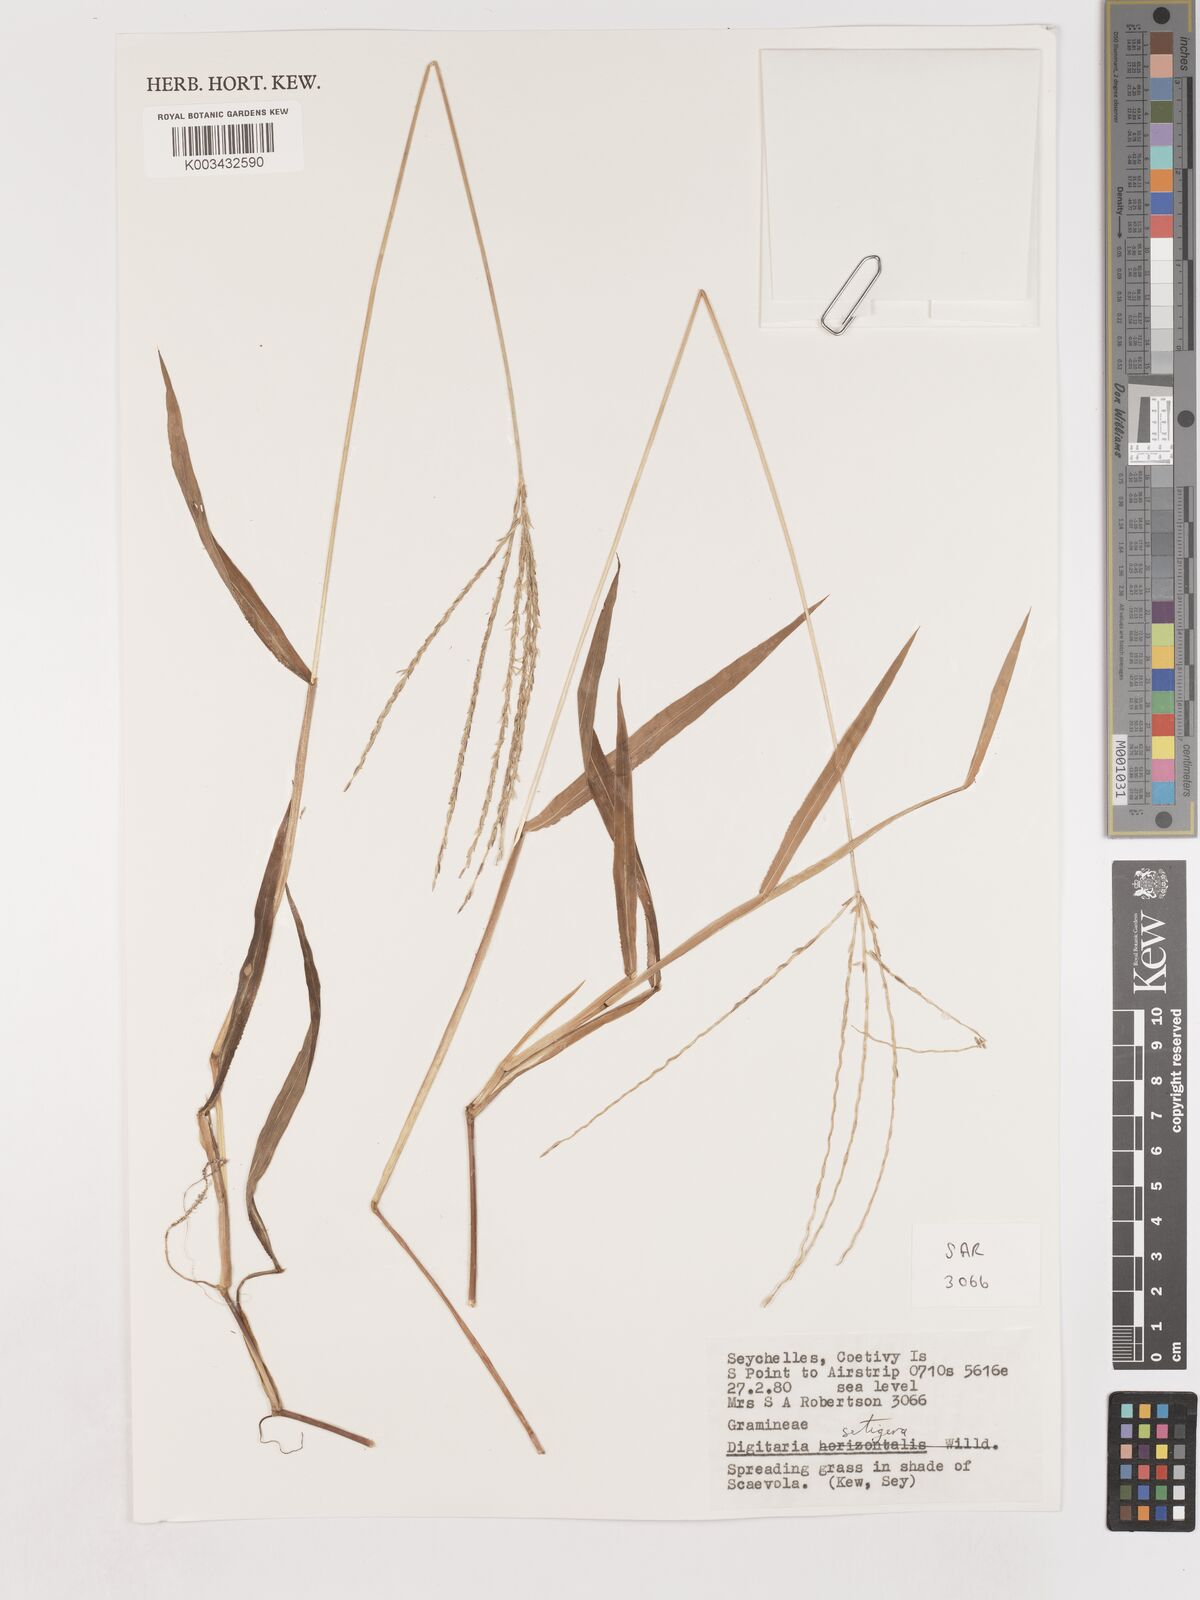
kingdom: Plantae
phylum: Tracheophyta
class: Liliopsida
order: Poales
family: Poaceae
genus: Digitaria
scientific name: Digitaria setigera
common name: East indian crabgrass
